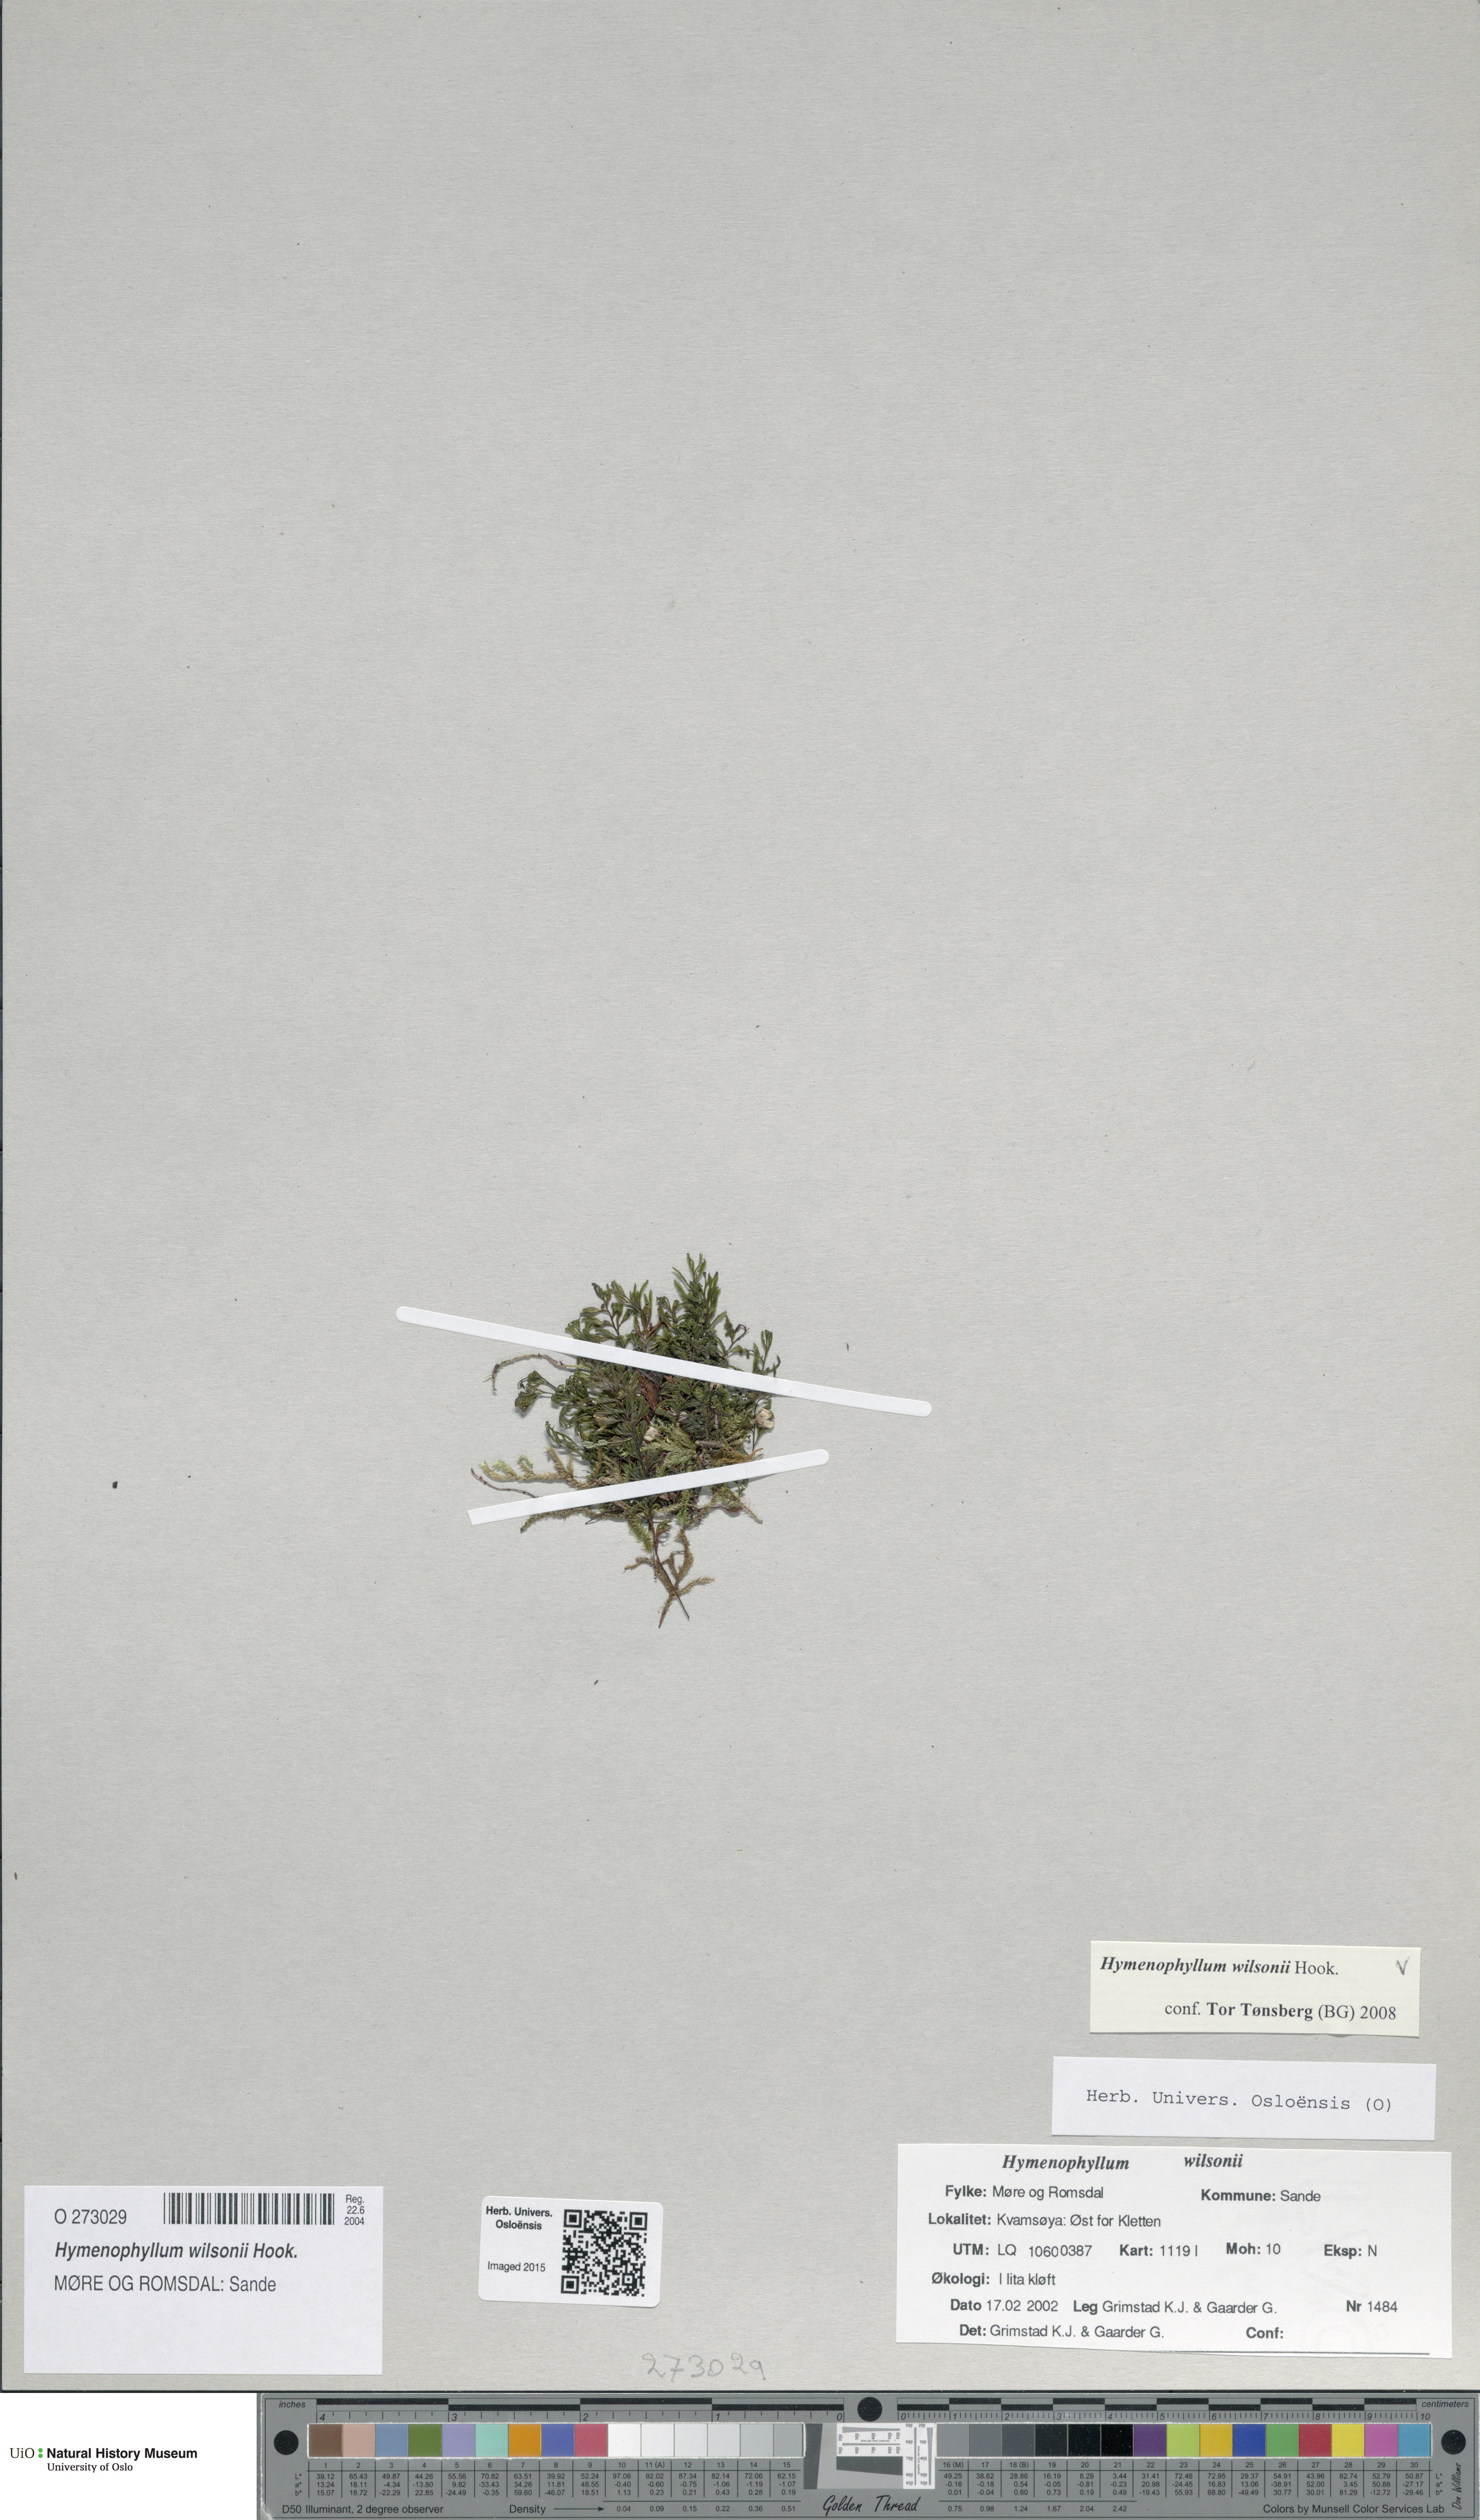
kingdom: Plantae
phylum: Tracheophyta
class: Polypodiopsida
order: Hymenophyllales
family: Hymenophyllaceae
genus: Hymenophyllum
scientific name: Hymenophyllum peltatum
